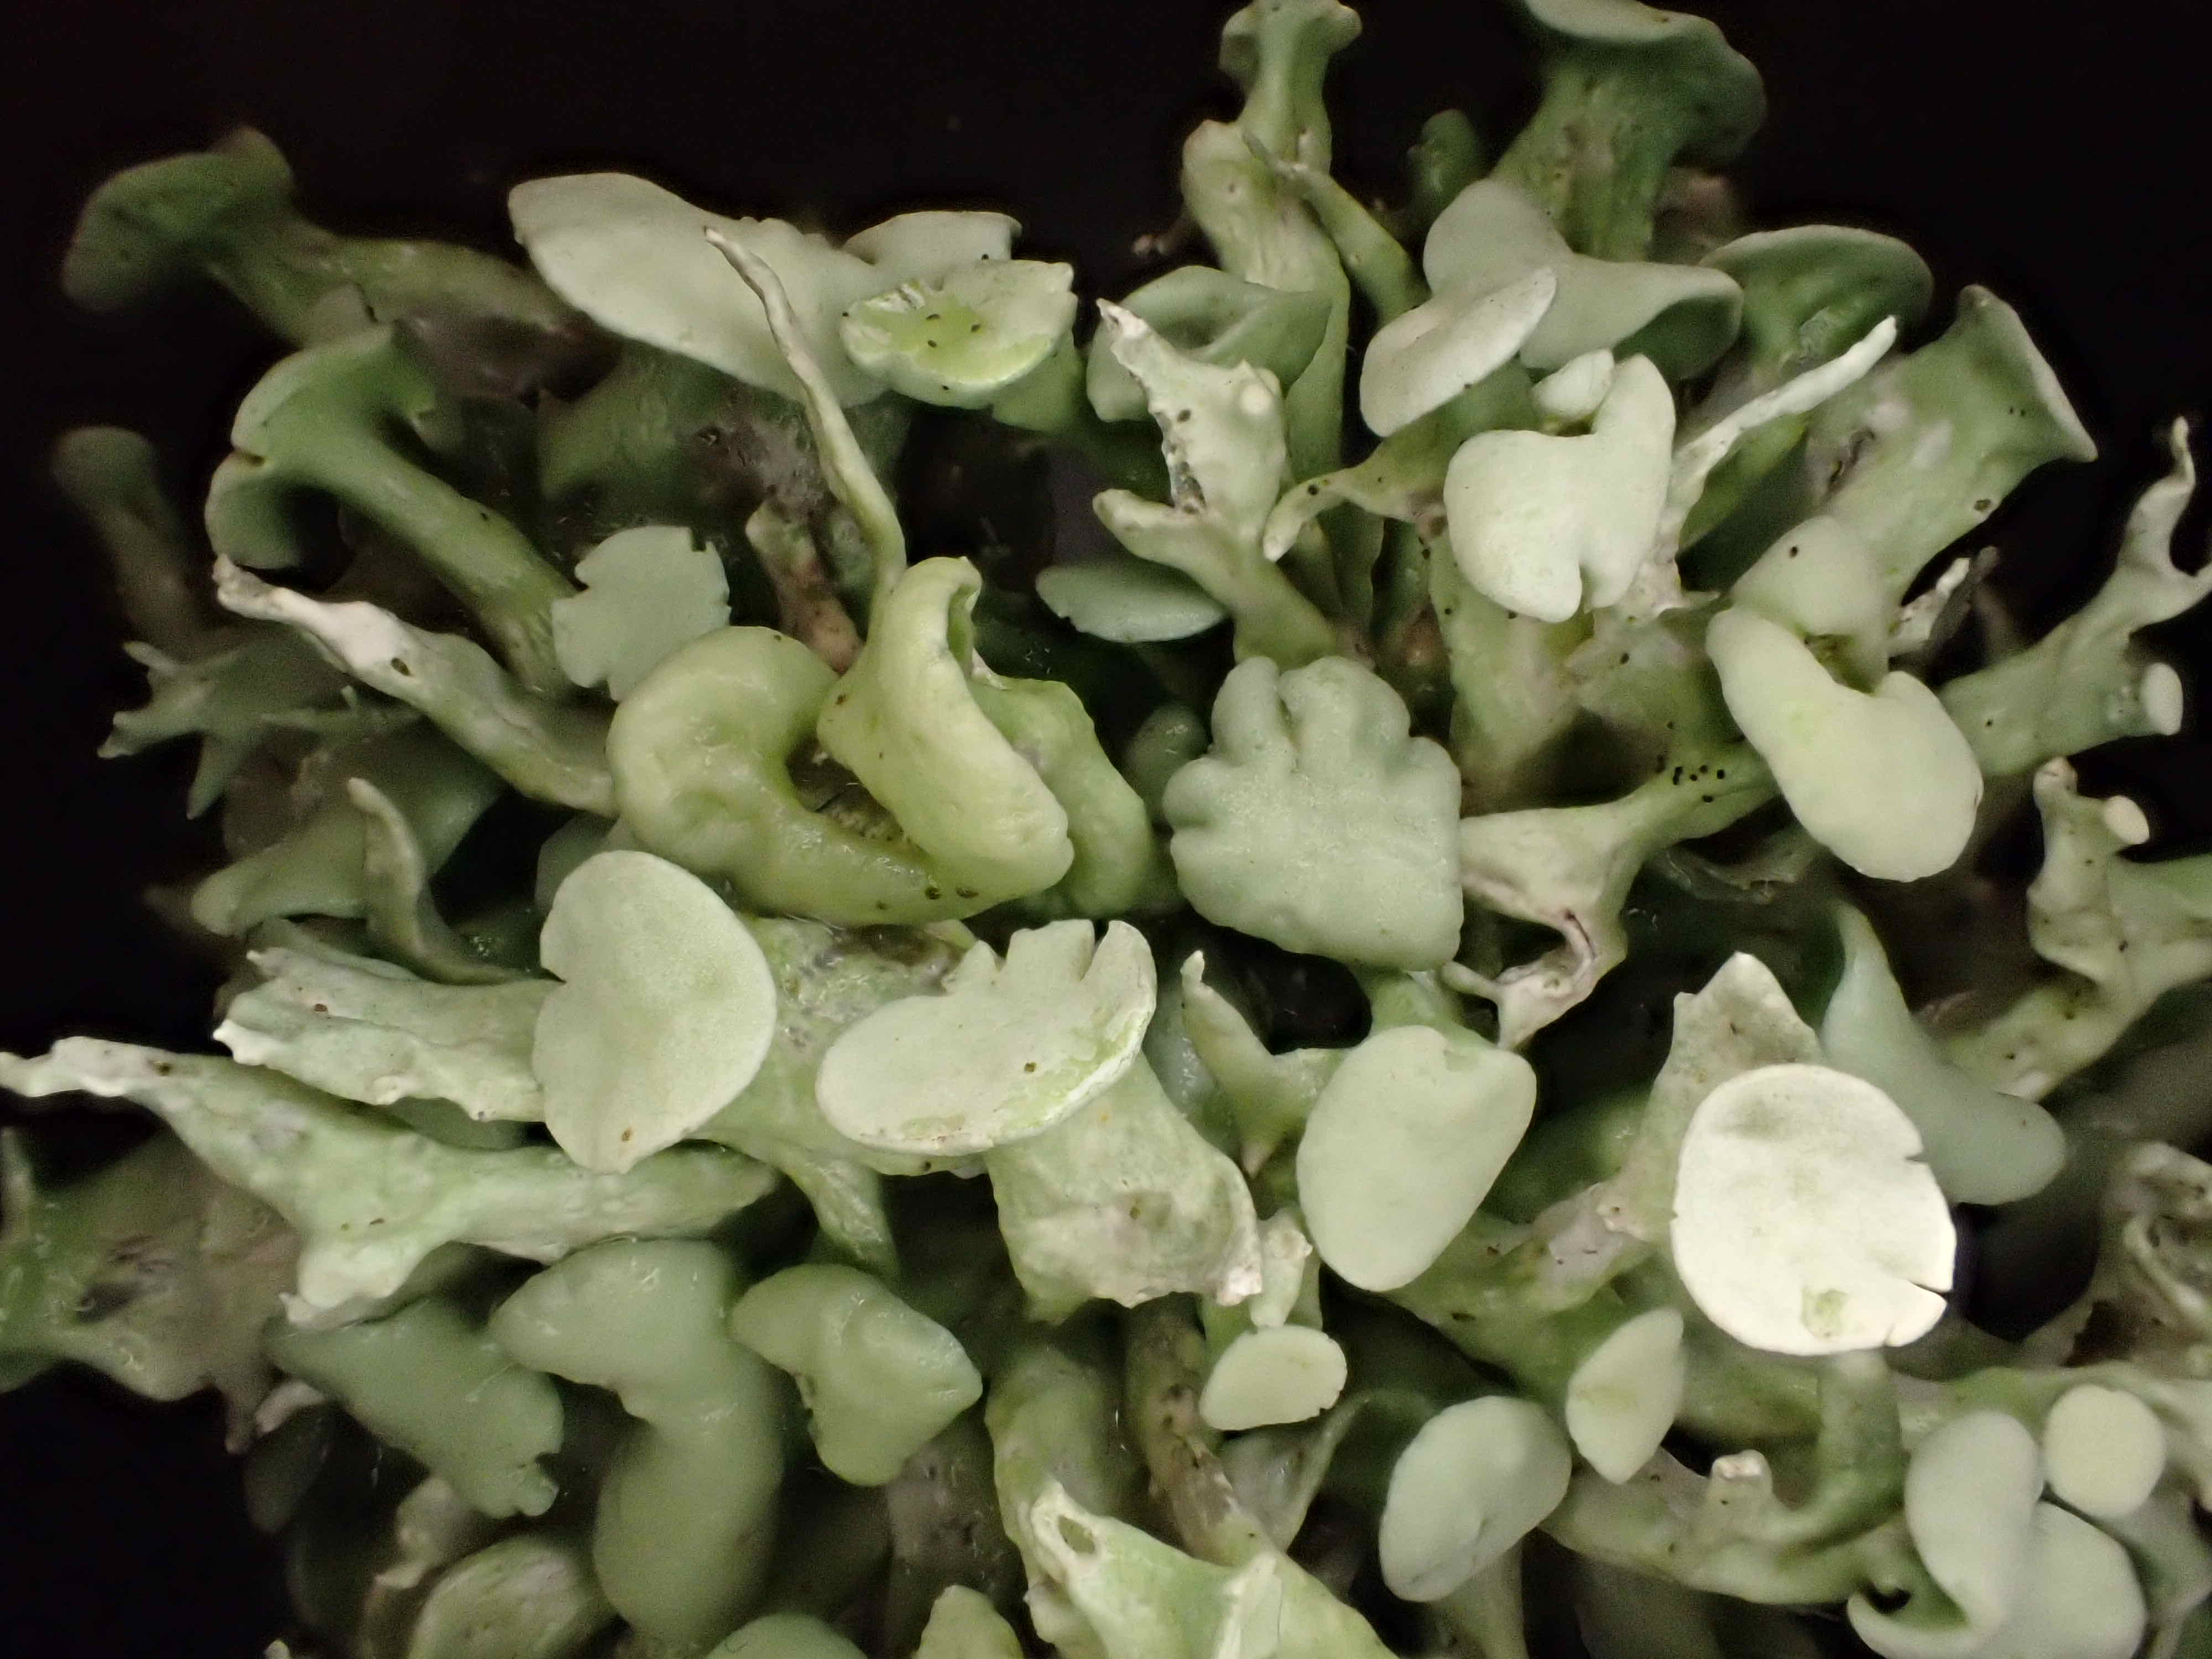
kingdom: Fungi
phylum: Ascomycota
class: Lecanoromycetes
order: Lecanorales
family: Ramalinaceae
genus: Ramalina
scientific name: Ramalina fastigiata
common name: tue-grenlav
